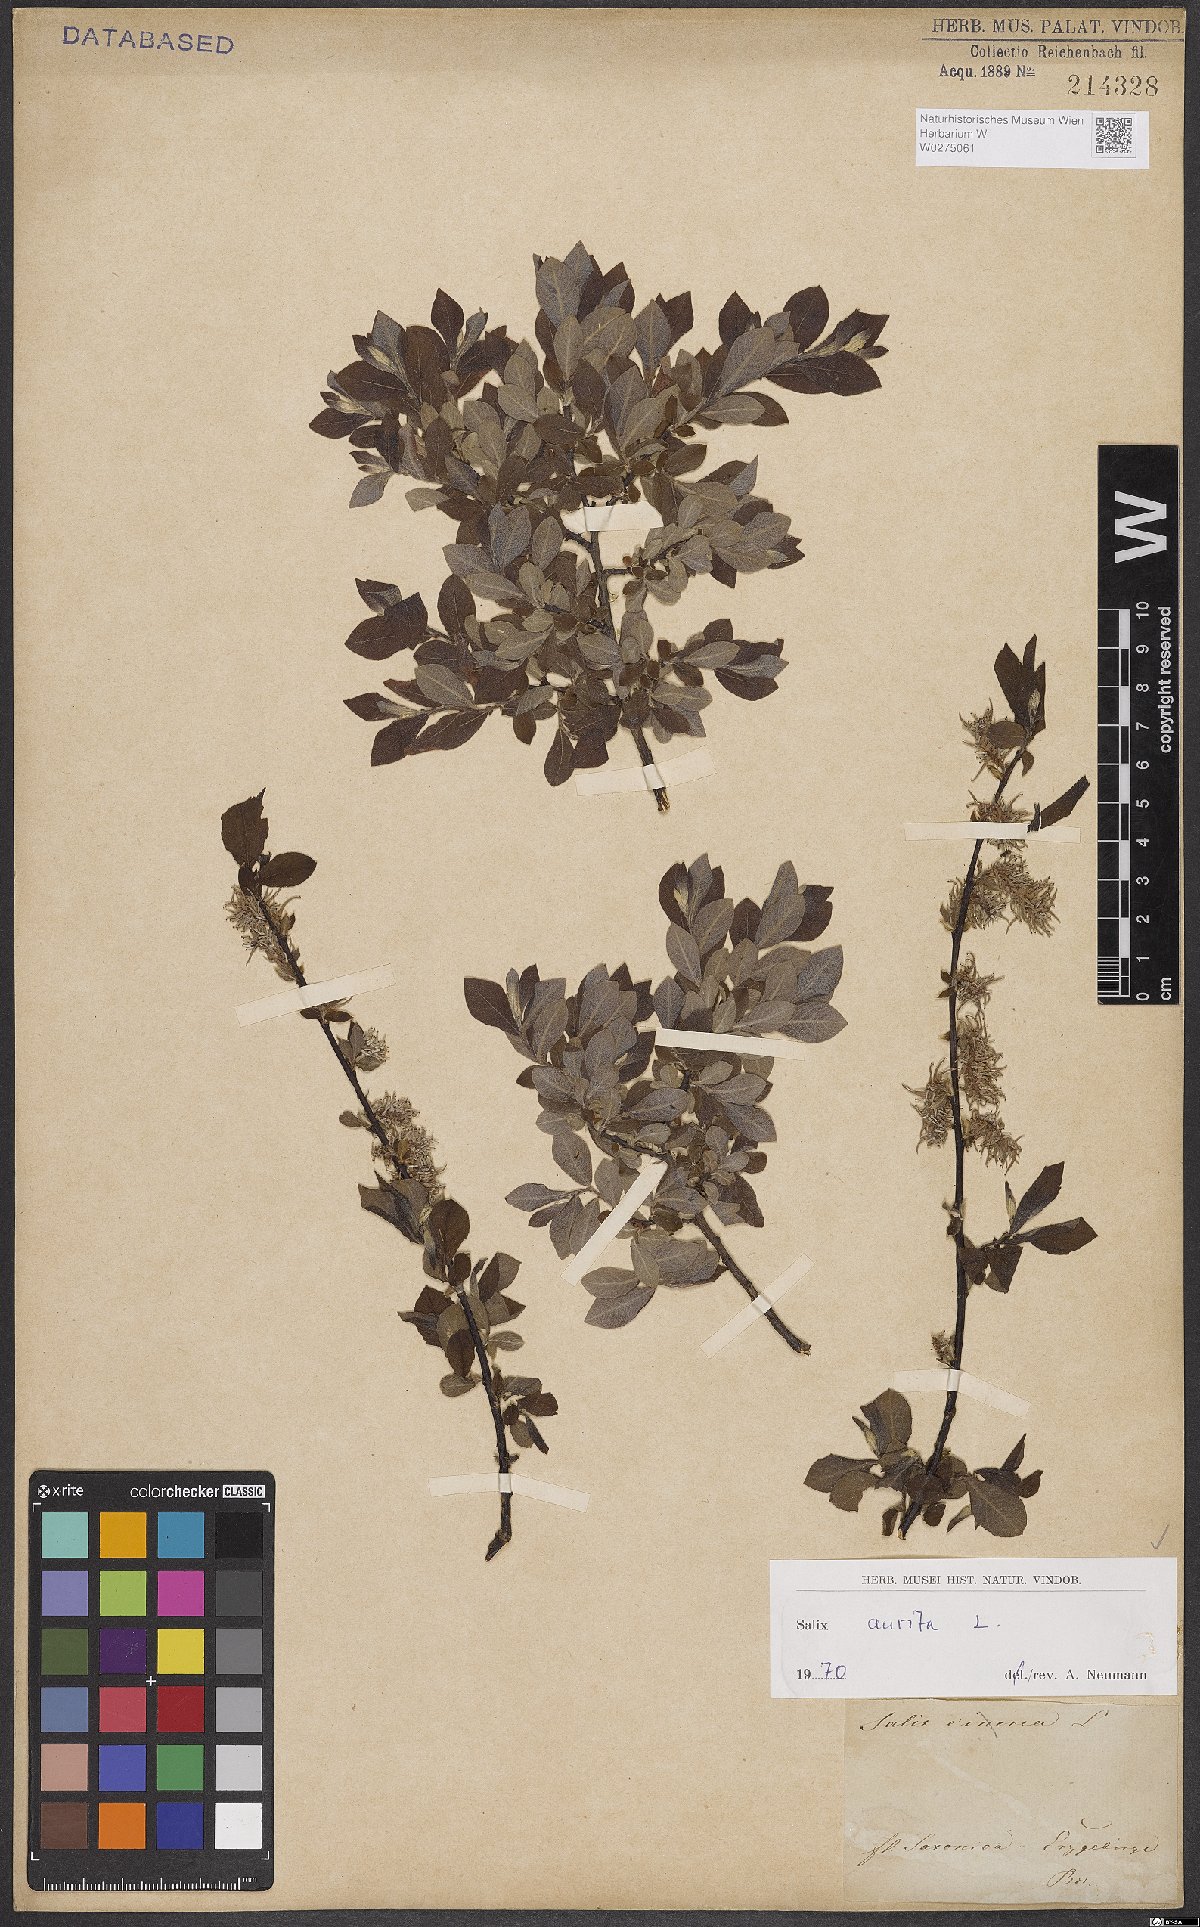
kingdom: Plantae
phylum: Tracheophyta
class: Magnoliopsida
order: Malpighiales
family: Salicaceae
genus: Salix
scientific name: Salix aurita
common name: Eared willow
